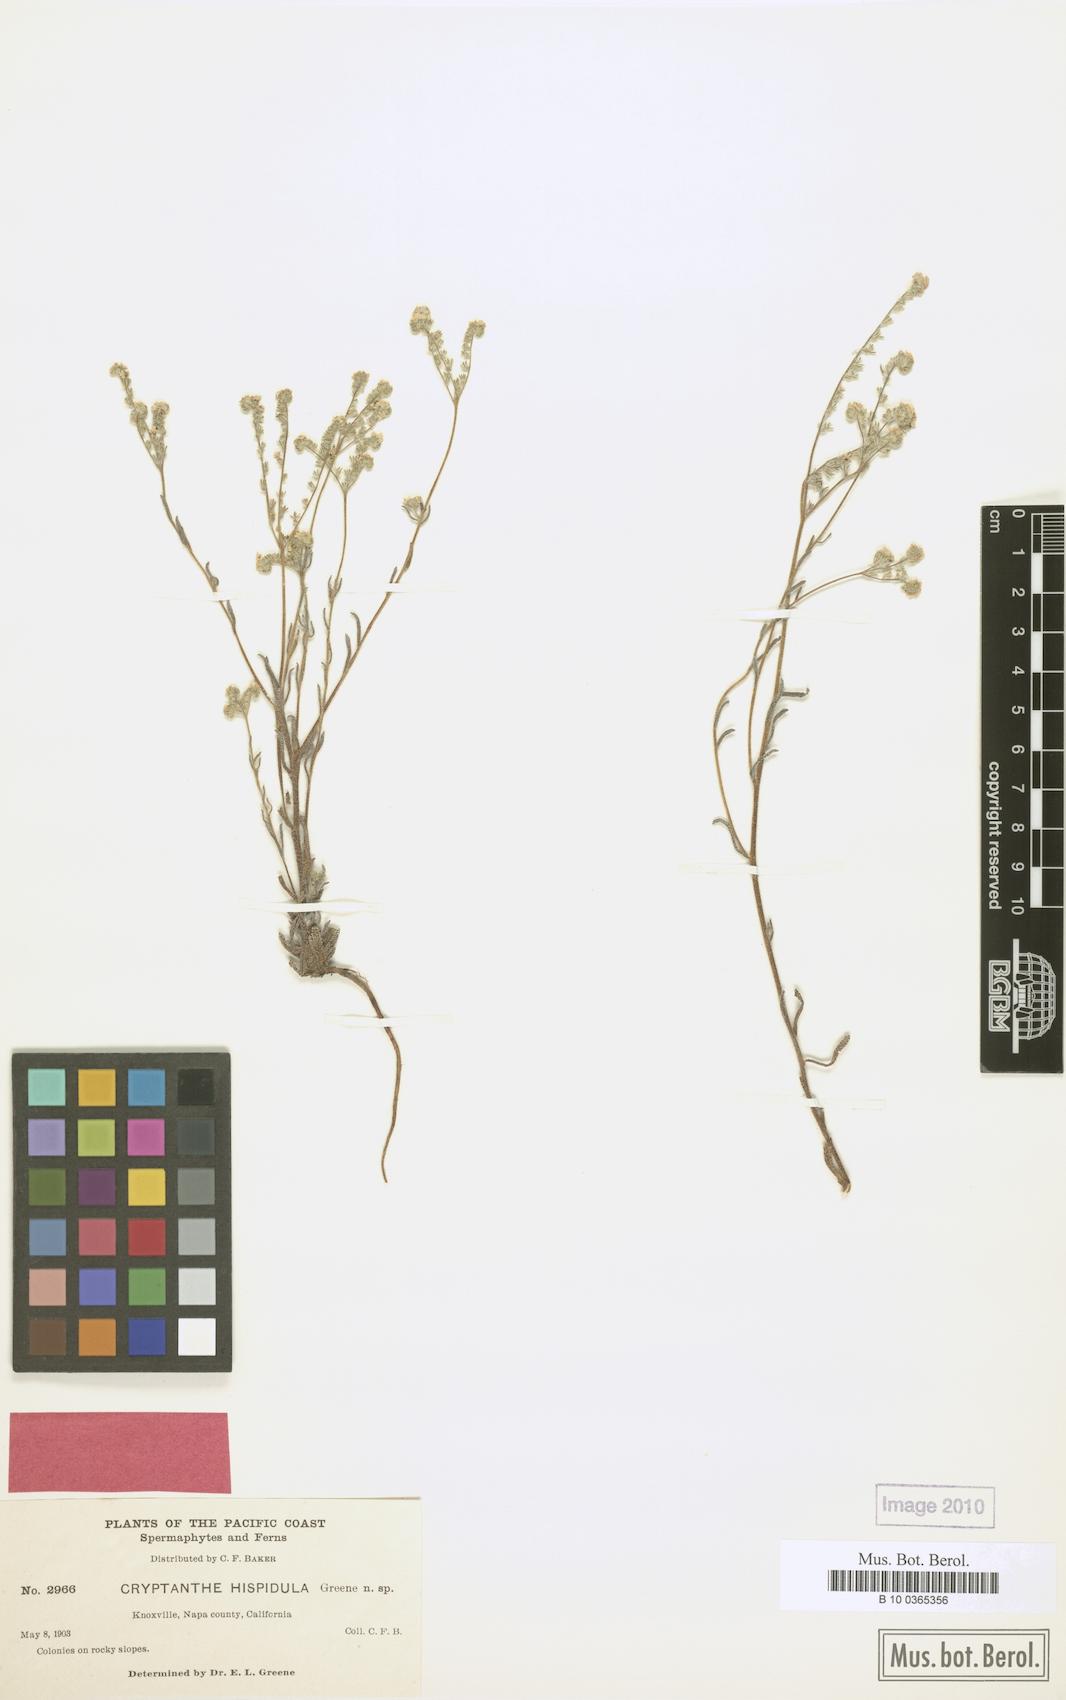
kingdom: Plantae
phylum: Tracheophyta
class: Magnoliopsida
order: Boraginales
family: Boraginaceae
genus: Cryptantha
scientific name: Cryptantha hispidula
